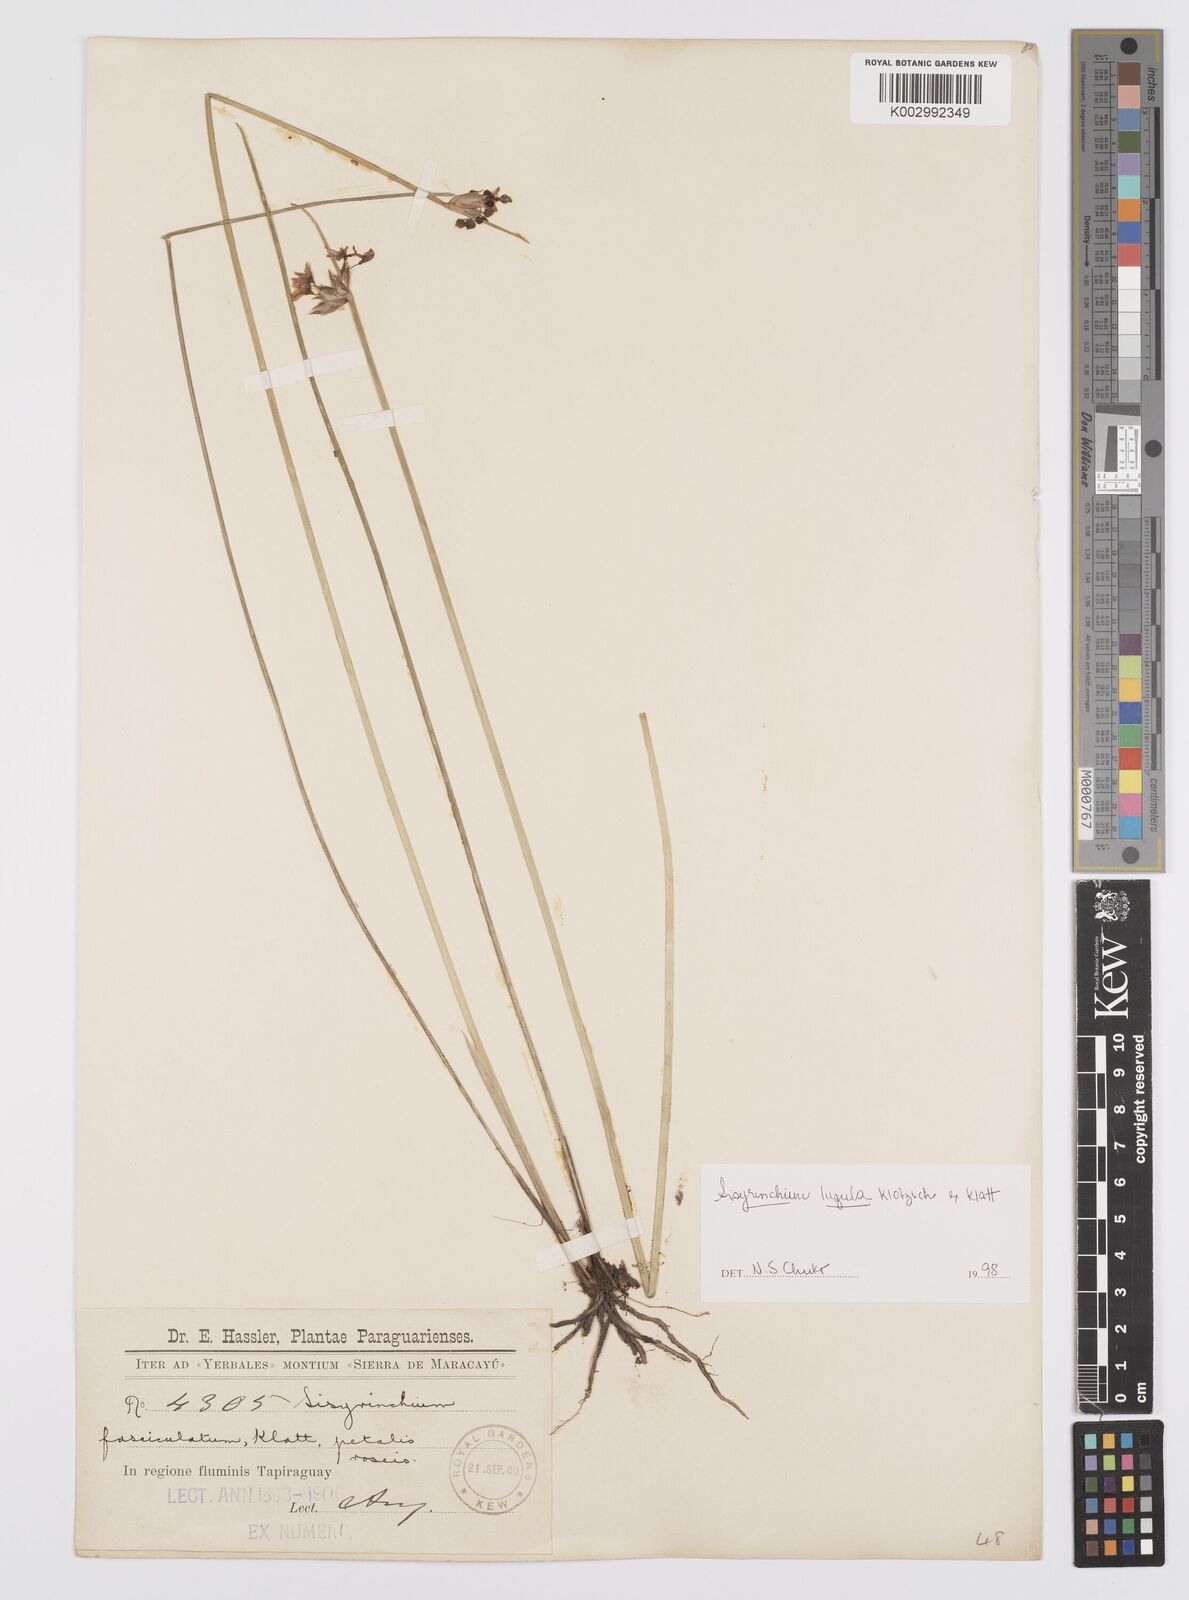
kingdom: Plantae
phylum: Tracheophyta
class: Liliopsida
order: Asparagales
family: Iridaceae
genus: Sisyrinchium
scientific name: Sisyrinchium luzula
